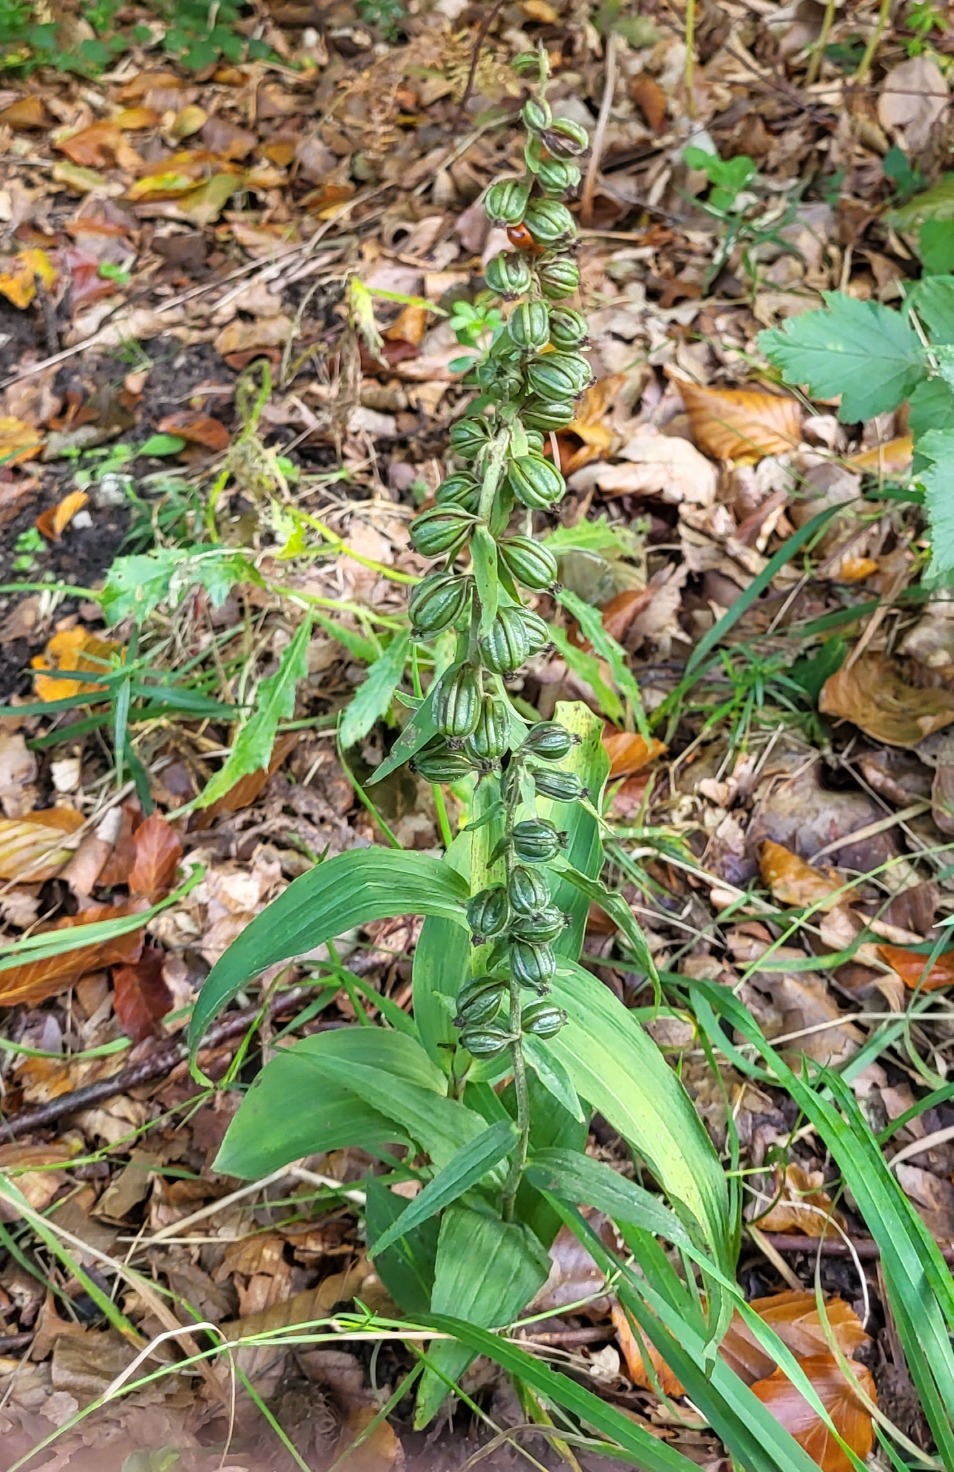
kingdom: Plantae
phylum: Tracheophyta
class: Liliopsida
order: Asparagales
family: Orchidaceae
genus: Epipactis
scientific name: Epipactis helleborine
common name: Skov-hullæbe
